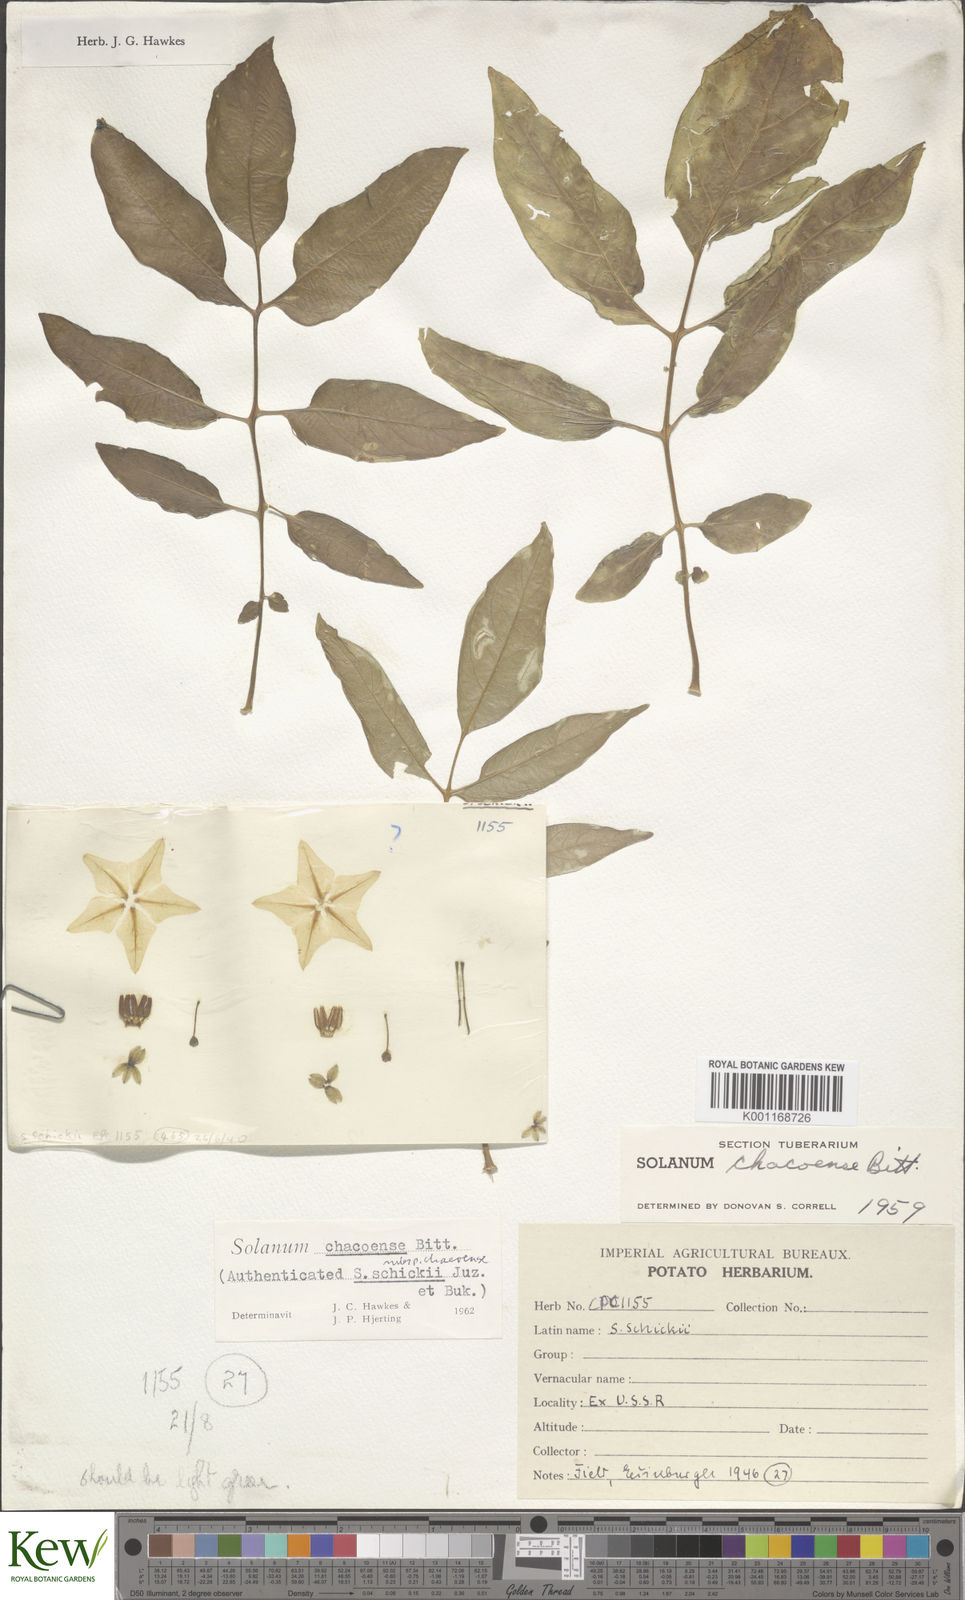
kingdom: Plantae
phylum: Tracheophyta
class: Magnoliopsida
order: Solanales
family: Solanaceae
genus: Solanum
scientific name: Solanum chacoense
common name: Chaco potato
